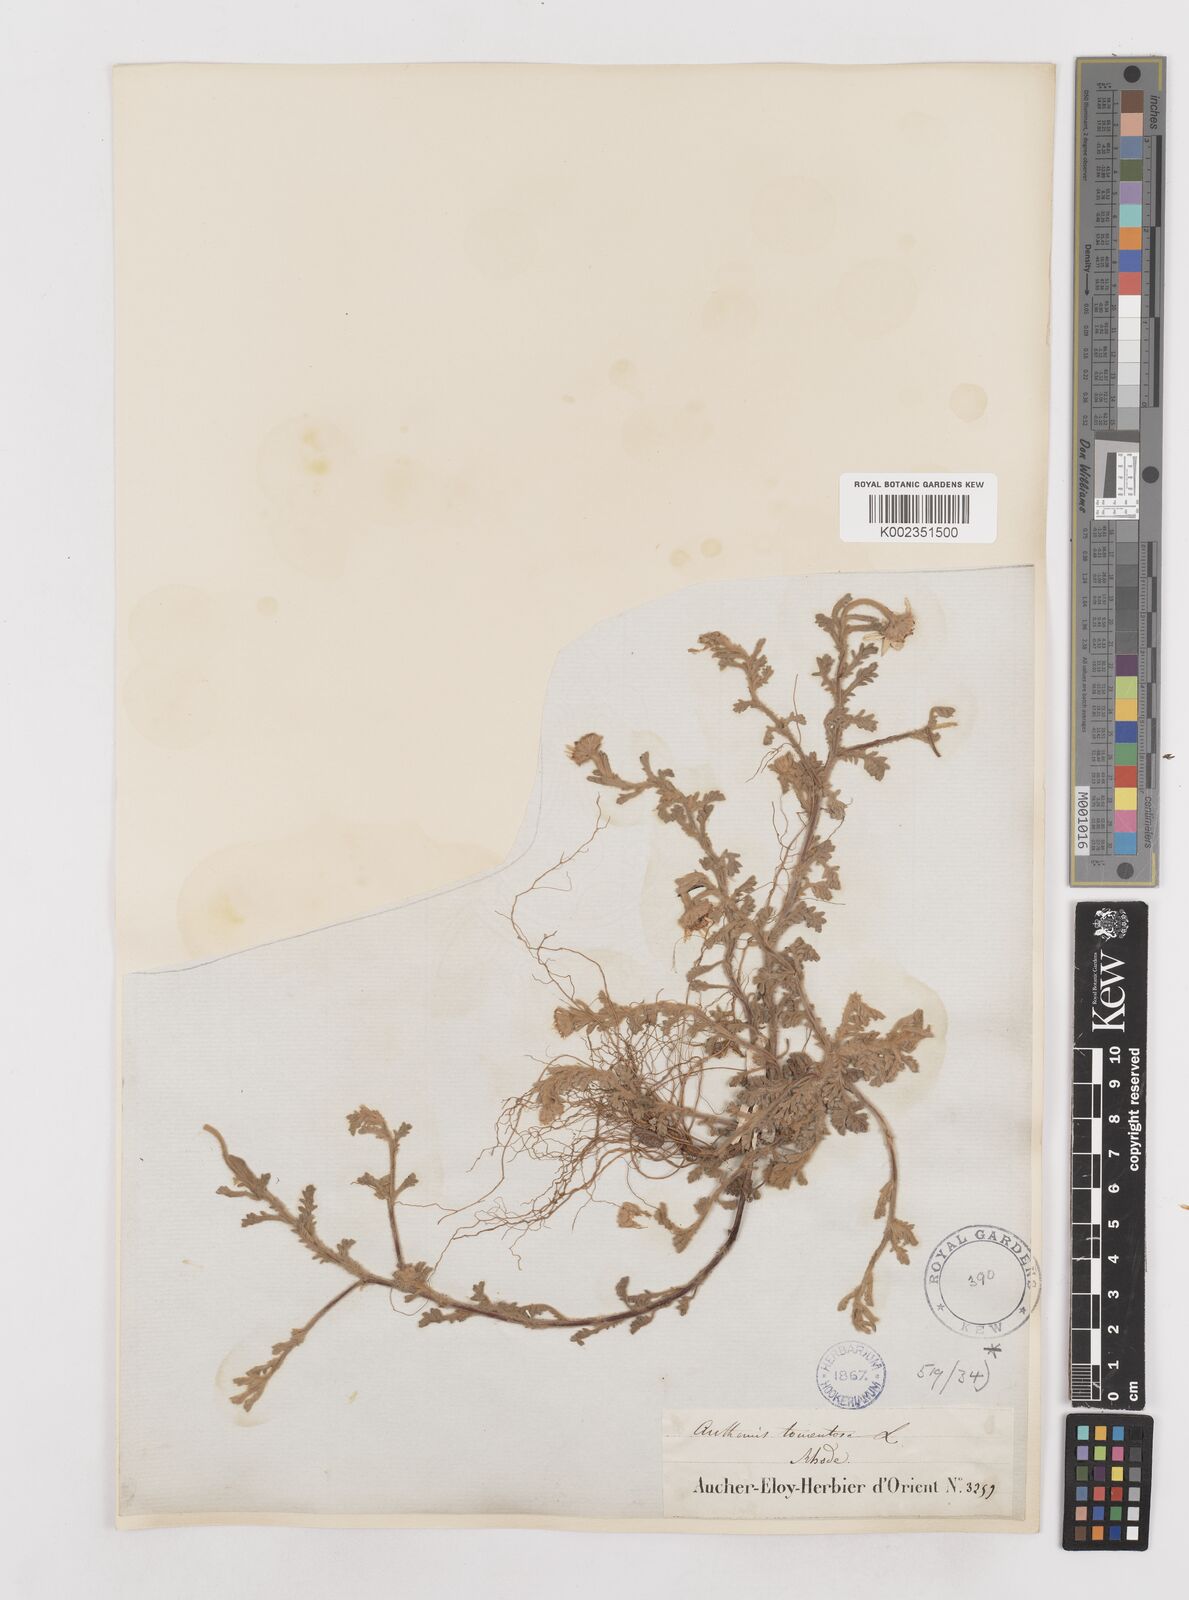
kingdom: Plantae
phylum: Tracheophyta
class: Magnoliopsida
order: Asterales
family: Asteraceae
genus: Anthemis
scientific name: Anthemis tomentosa
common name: Woolly chamomile
